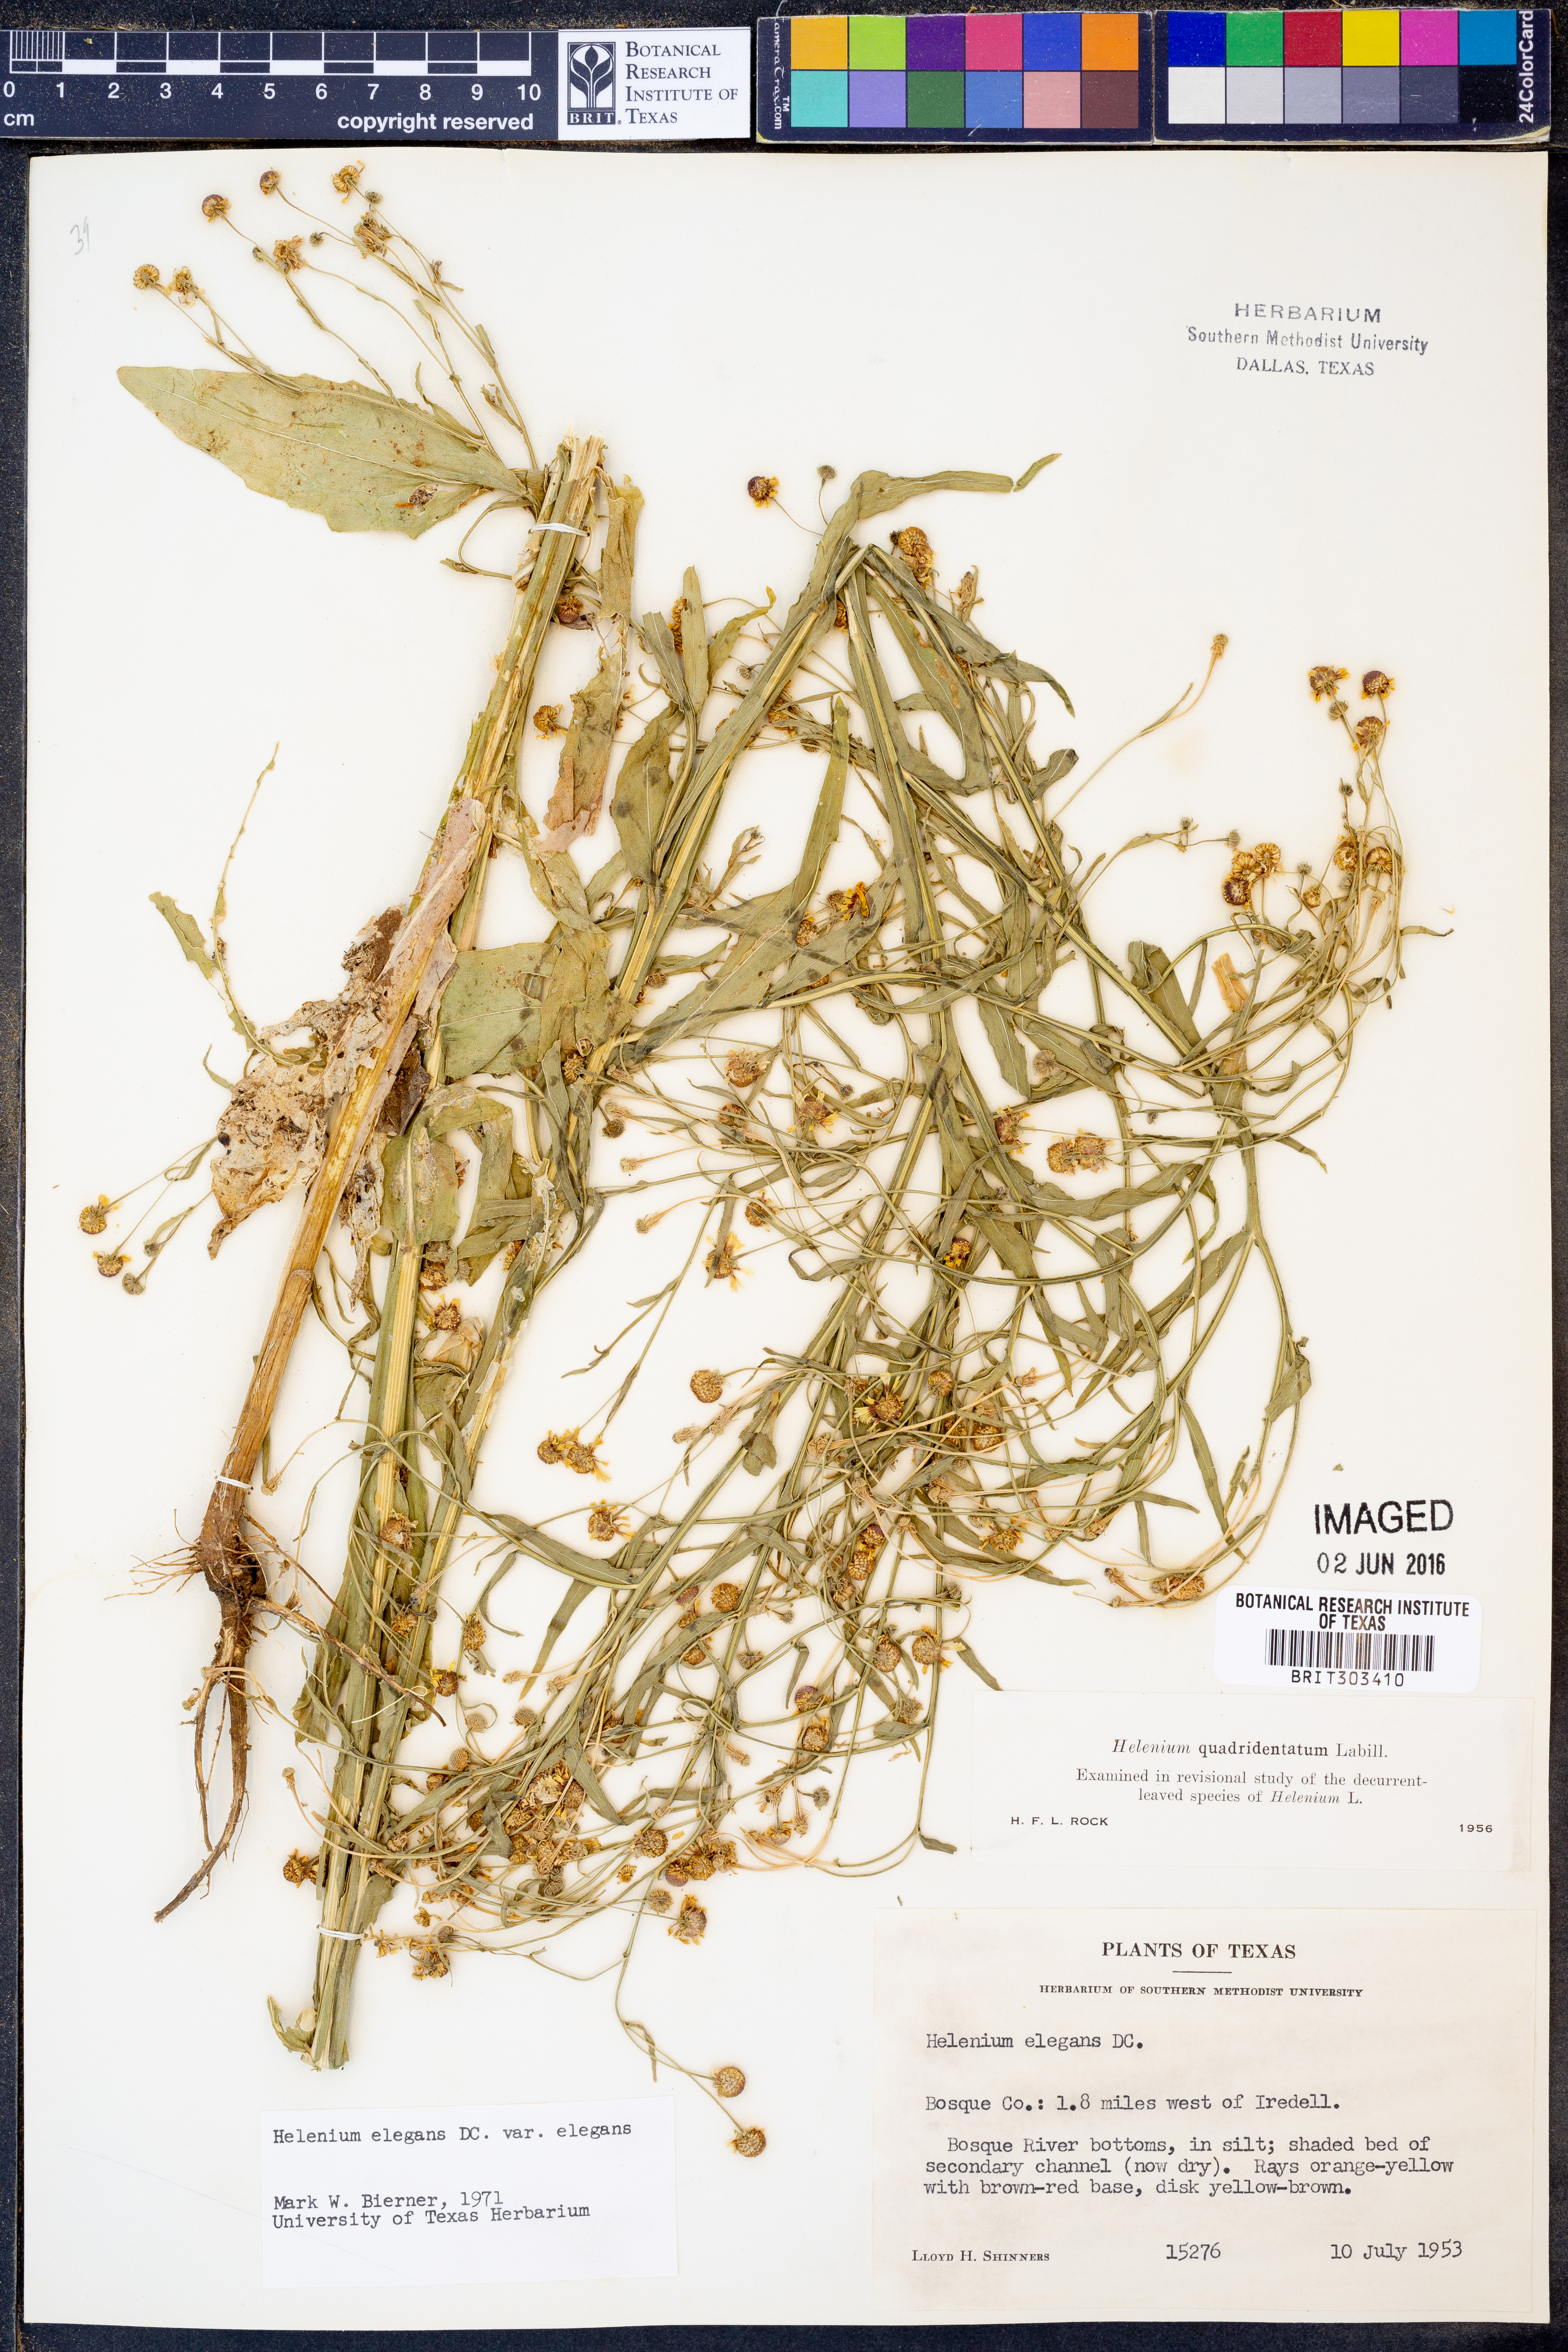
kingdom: Plantae
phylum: Tracheophyta
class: Magnoliopsida
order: Asterales
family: Asteraceae
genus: Helenium
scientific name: Helenium elegans
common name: Pretty sneezeweed
